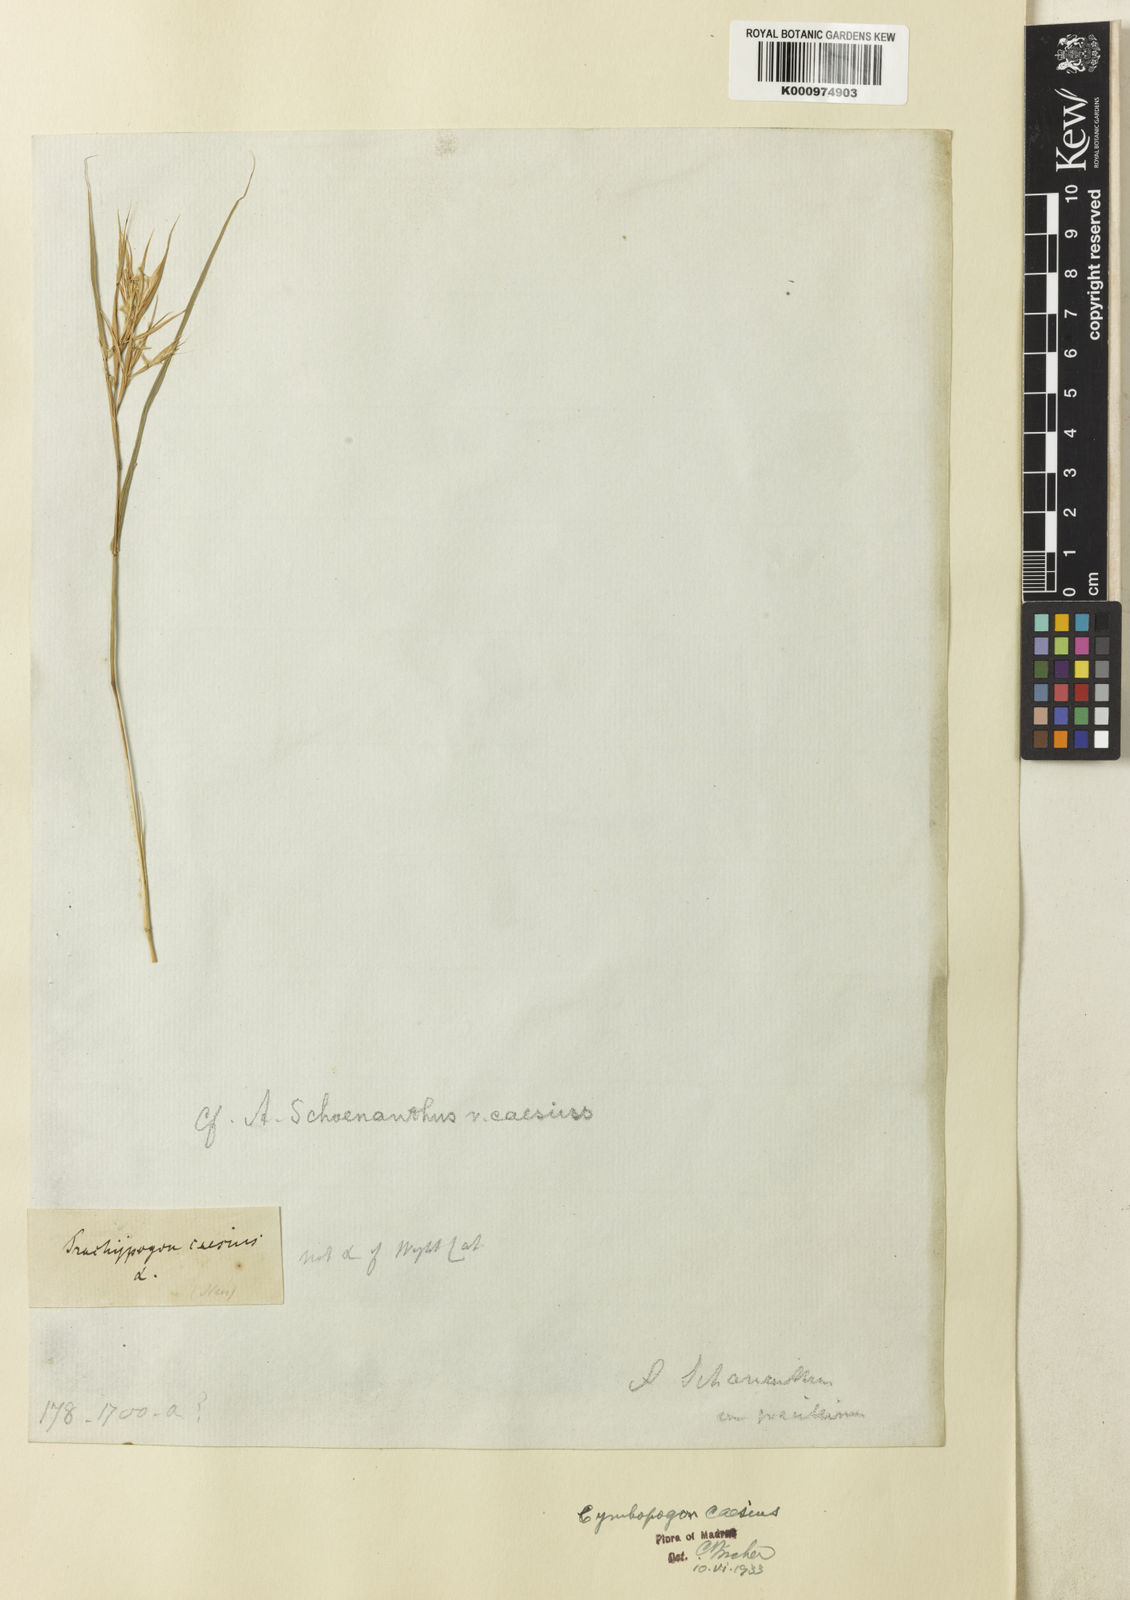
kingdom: Plantae
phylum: Tracheophyta
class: Liliopsida
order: Poales
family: Poaceae
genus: Cymbopogon
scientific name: Cymbopogon caesius
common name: Kachi grass
